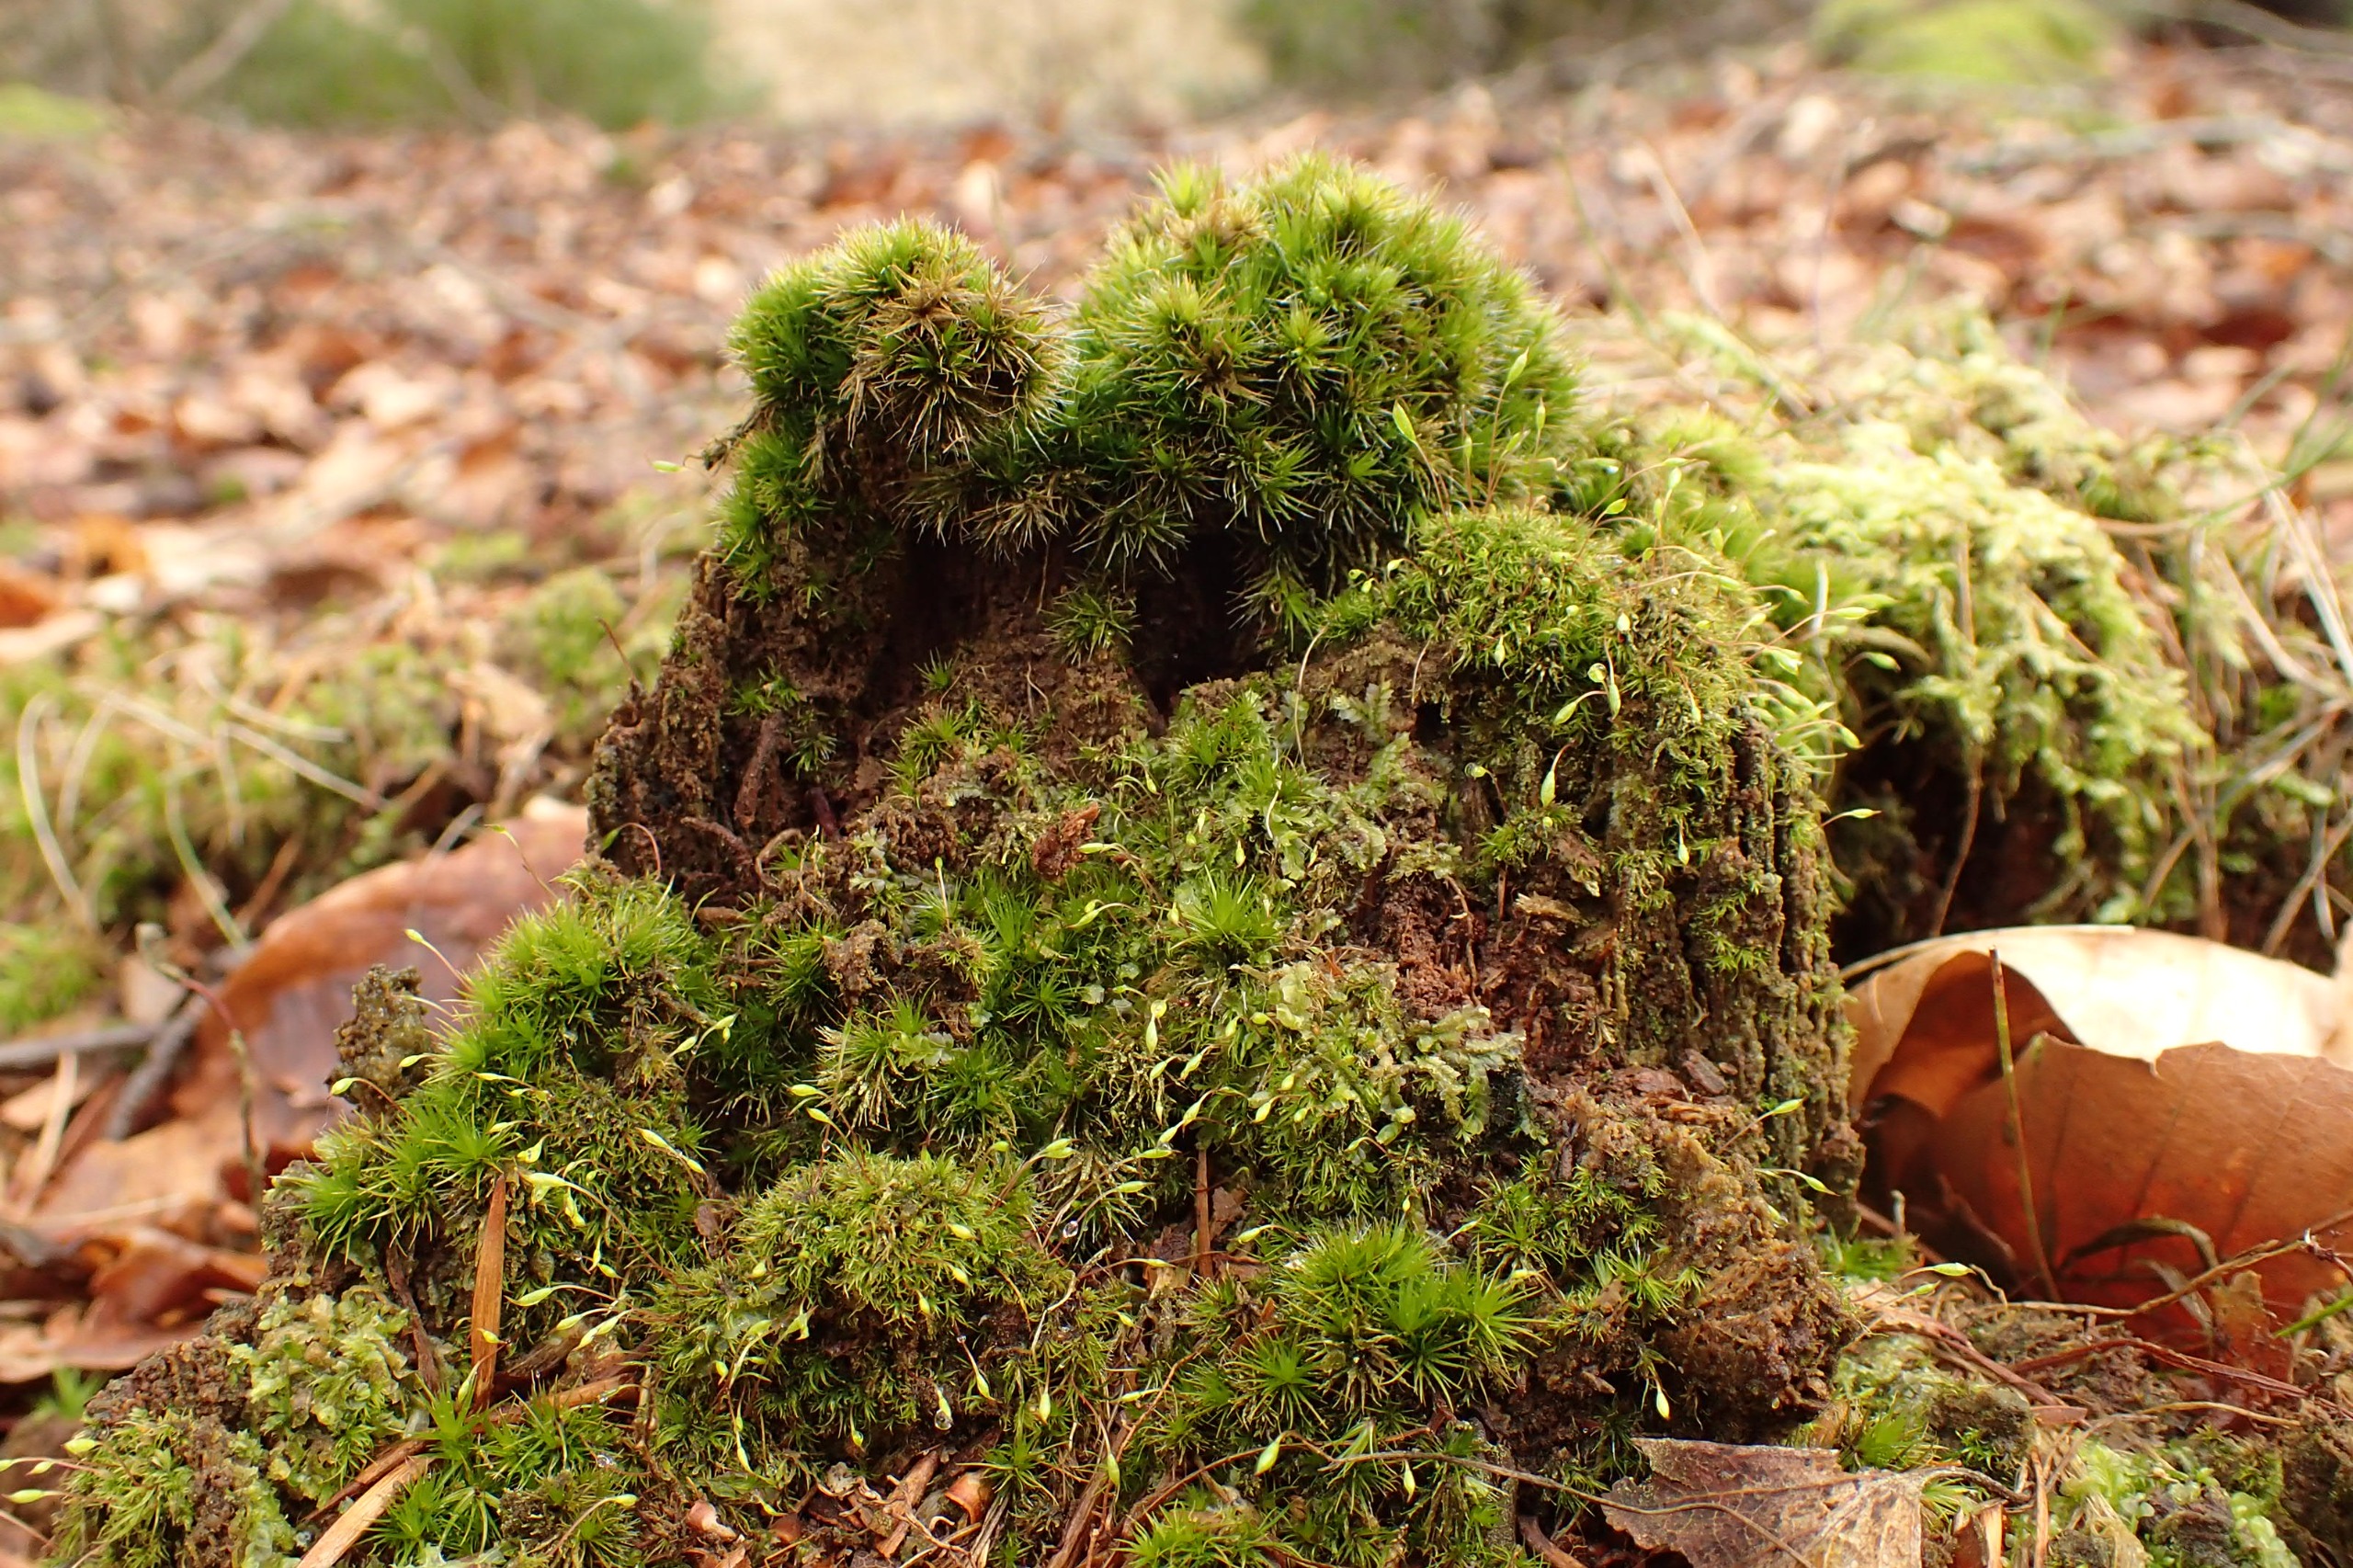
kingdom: Plantae
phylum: Bryophyta
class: Bryopsida
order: Orthodontiales
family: Orthodontiaceae
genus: Orthodontium
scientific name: Orthodontium lineare
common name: Smalbladet plysmos
